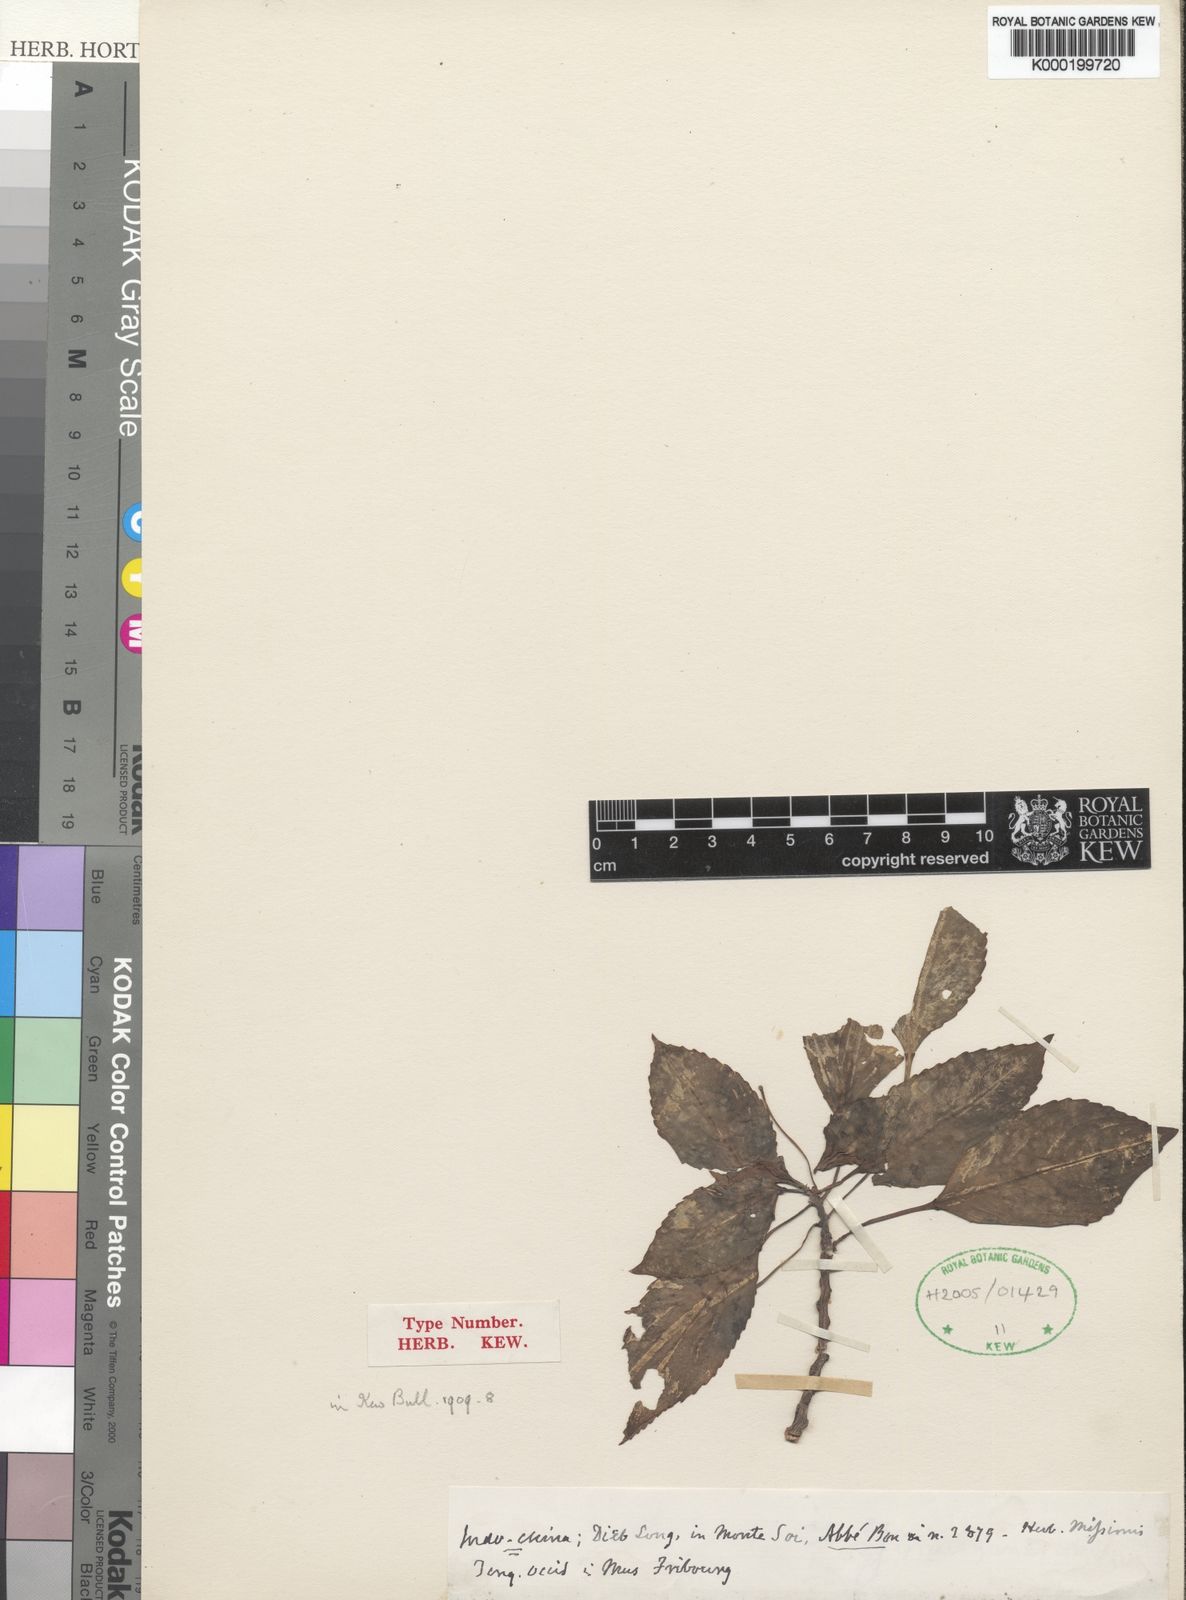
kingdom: Plantae
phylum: Tracheophyta
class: Magnoliopsida
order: Ericales
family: Balsaminaceae
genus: Impatiens
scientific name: Impatiens musyana
